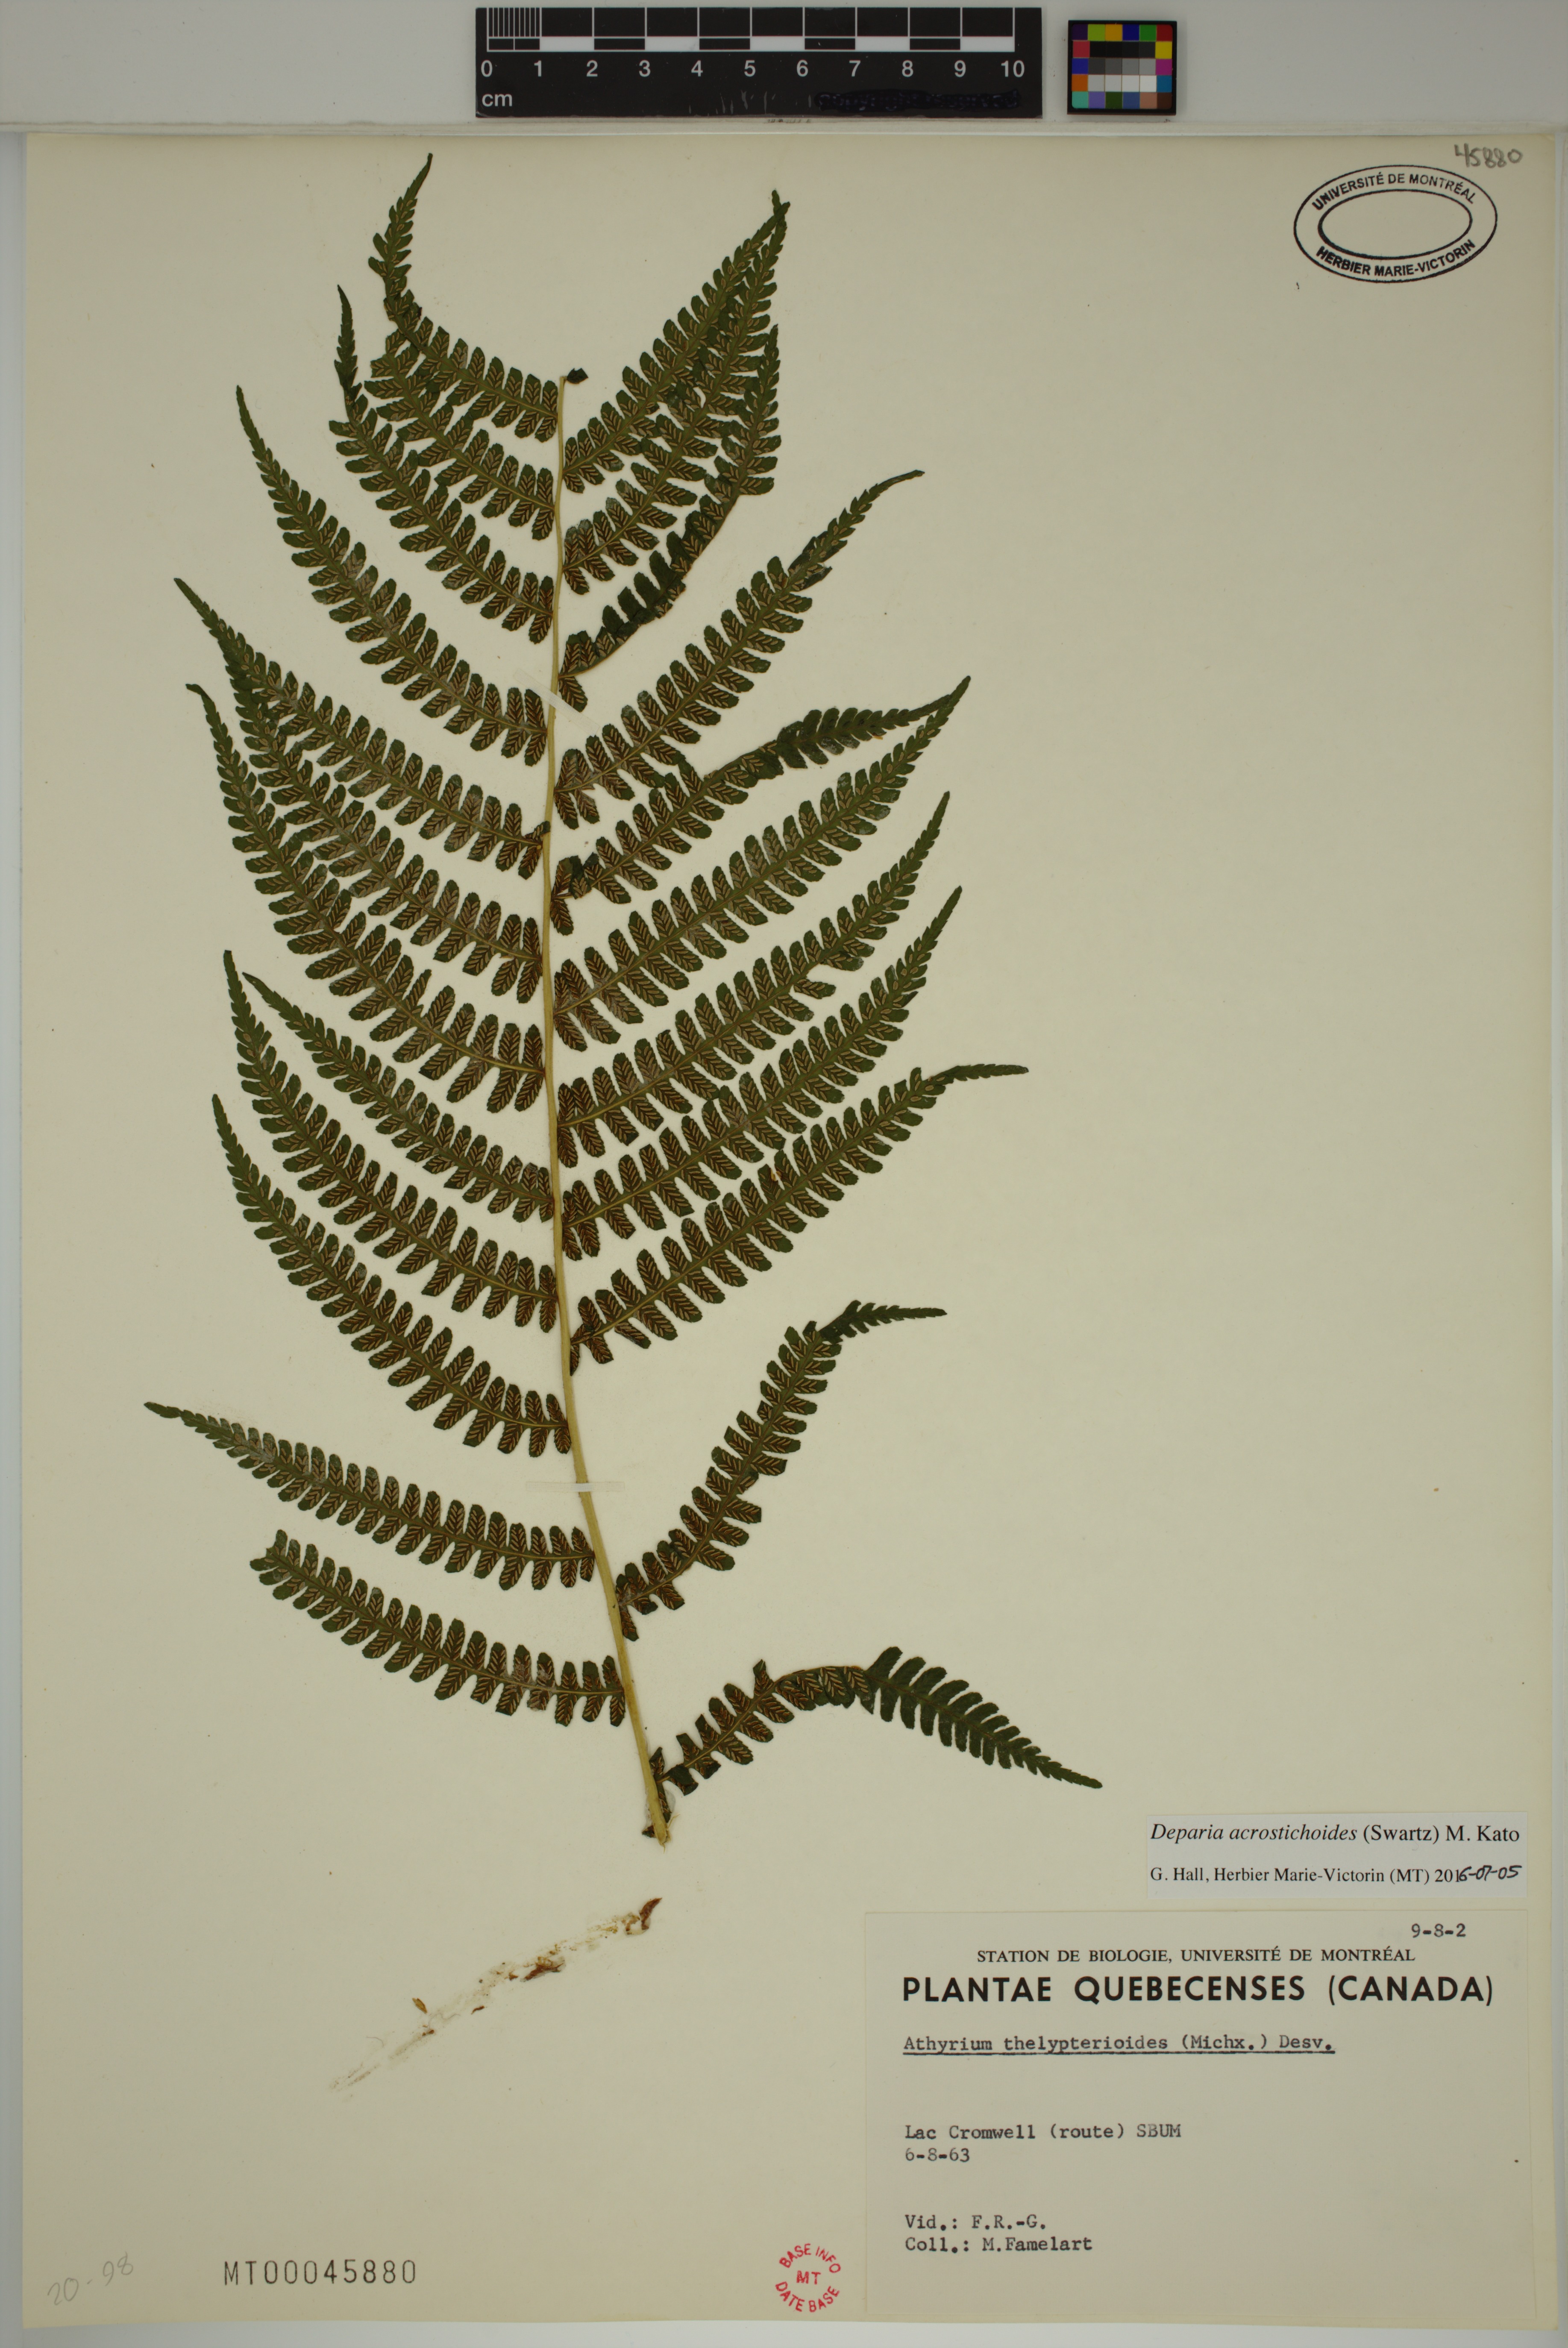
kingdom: Plantae
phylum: Tracheophyta
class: Polypodiopsida
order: Polypodiales
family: Athyriaceae
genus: Deparia
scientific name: Deparia acrostichoides
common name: Silver false spleenwort
